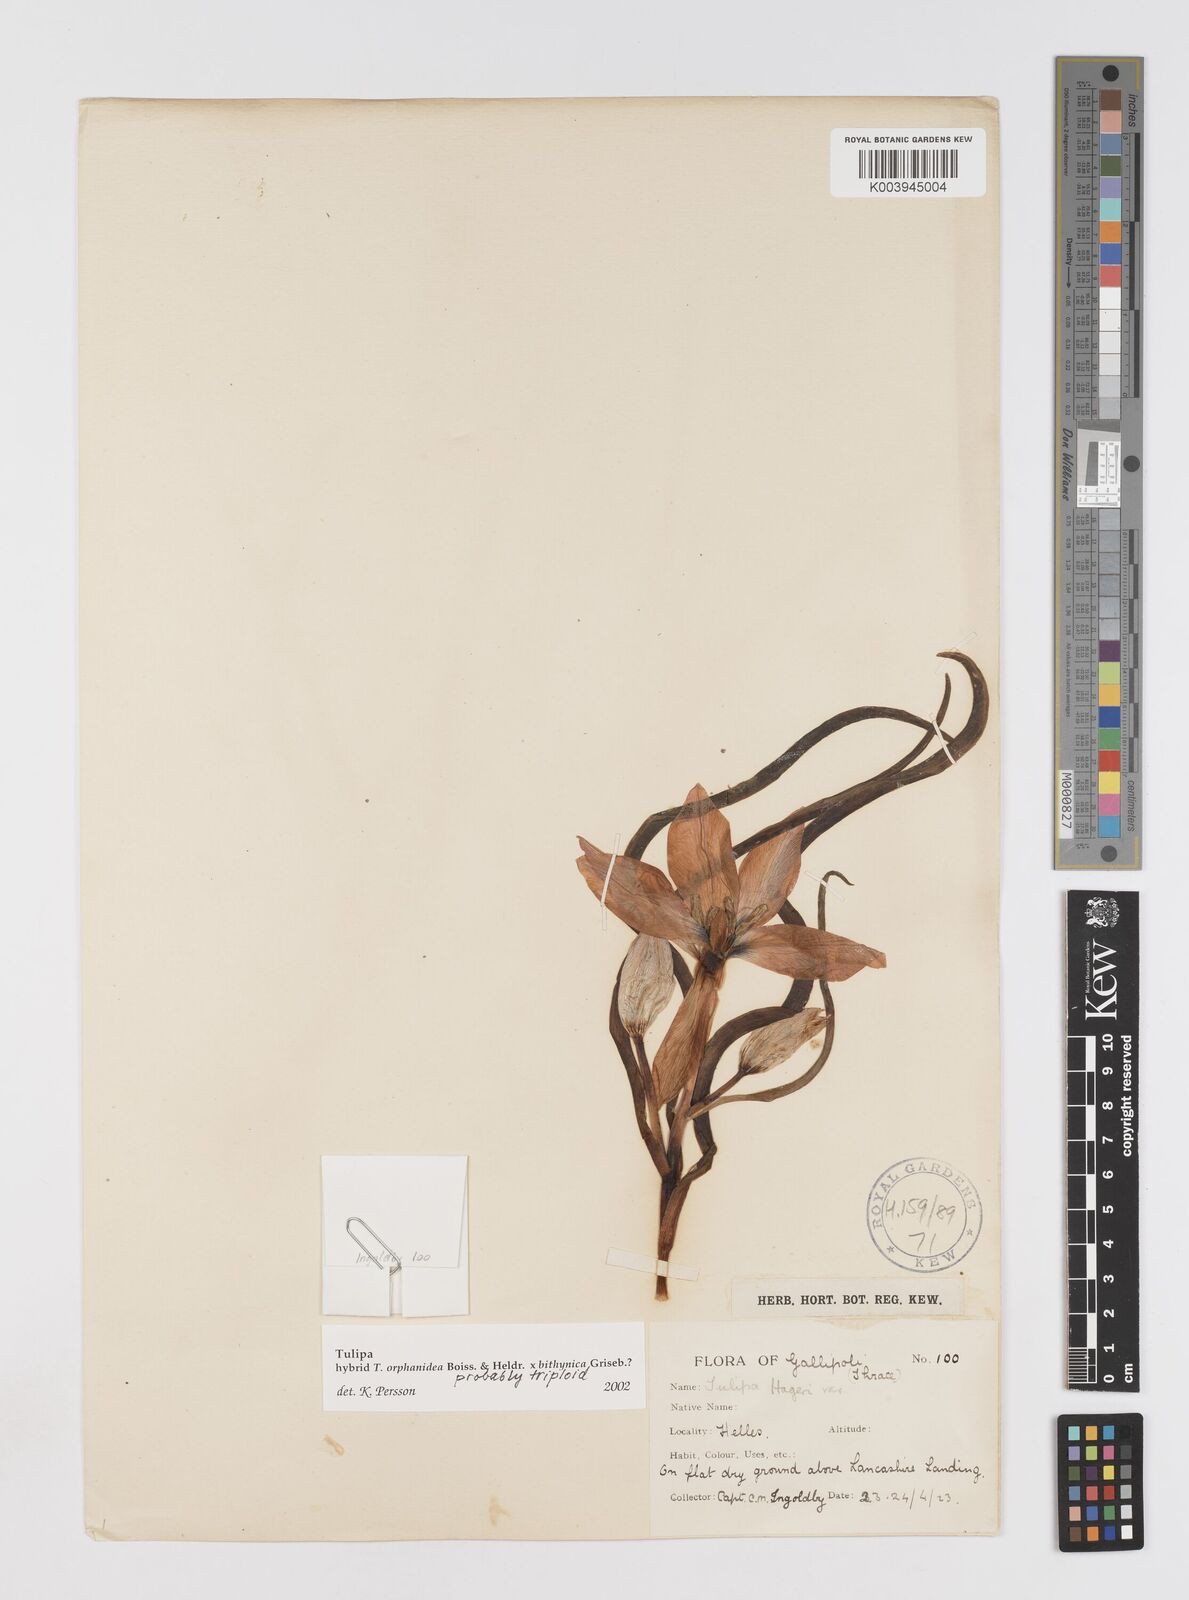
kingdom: Plantae
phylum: Tracheophyta
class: Liliopsida
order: Liliales
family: Liliaceae
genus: Tulipa
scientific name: Tulipa orphanidea
